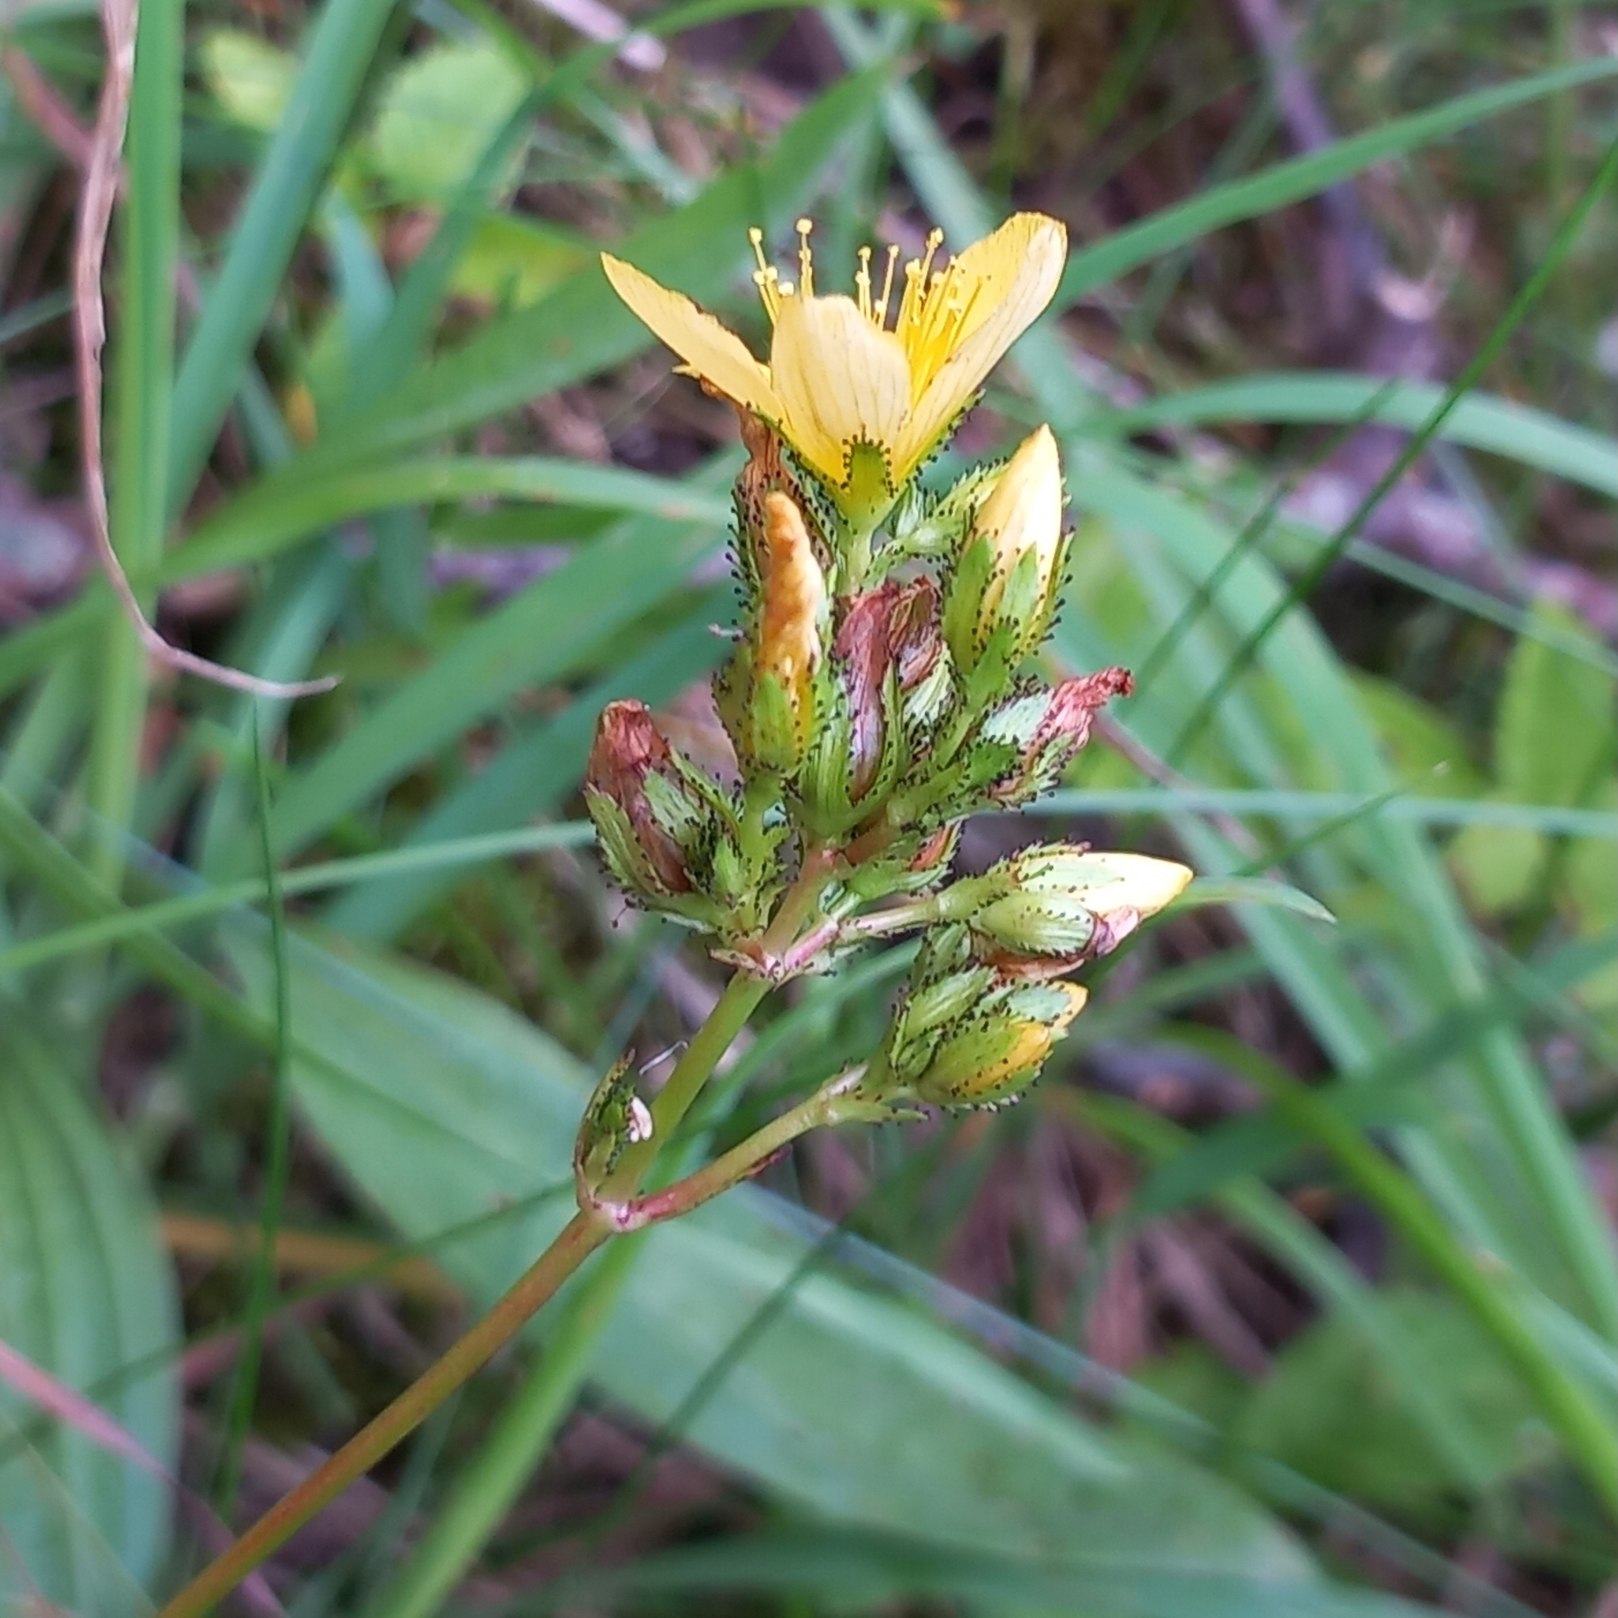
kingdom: Plantae
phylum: Tracheophyta
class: Magnoliopsida
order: Malpighiales
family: Hypericaceae
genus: Hypericum
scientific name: Hypericum montanum
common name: Bjerg-perikon
